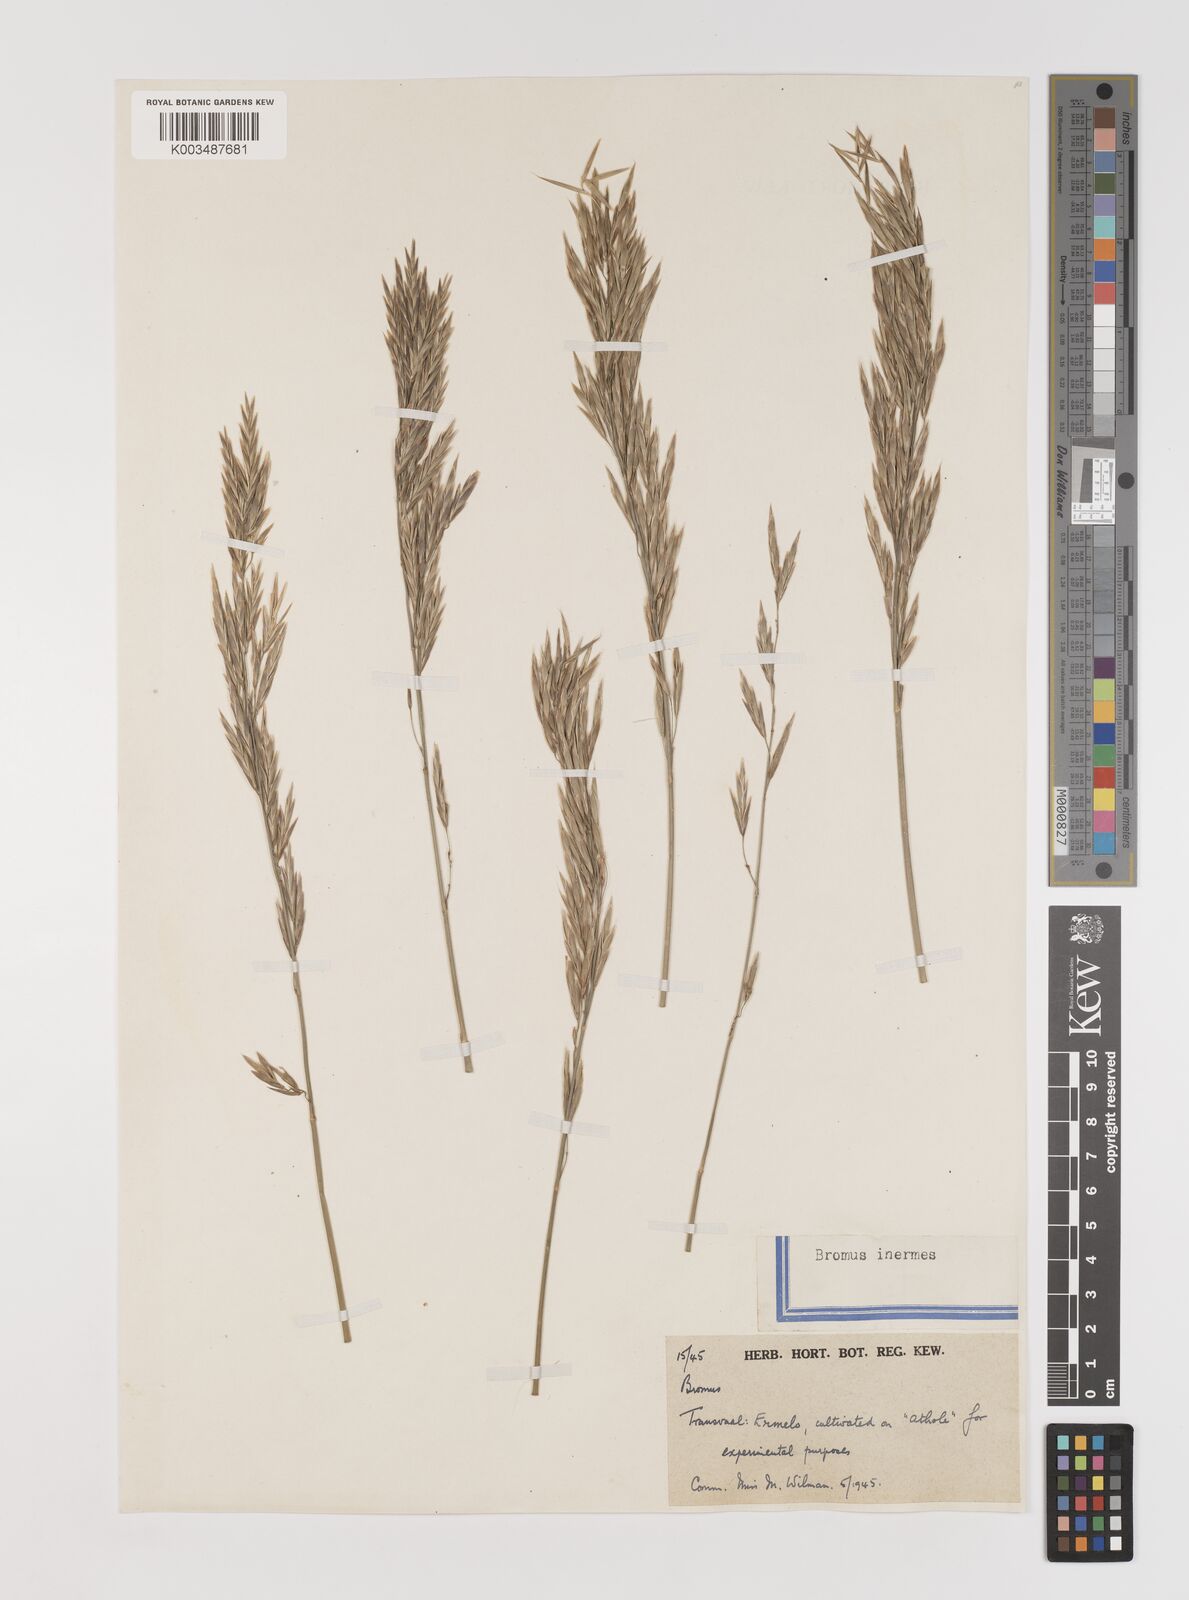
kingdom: Plantae
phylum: Tracheophyta
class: Liliopsida
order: Poales
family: Poaceae
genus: Bromus
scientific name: Bromus inermis
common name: Smooth brome
